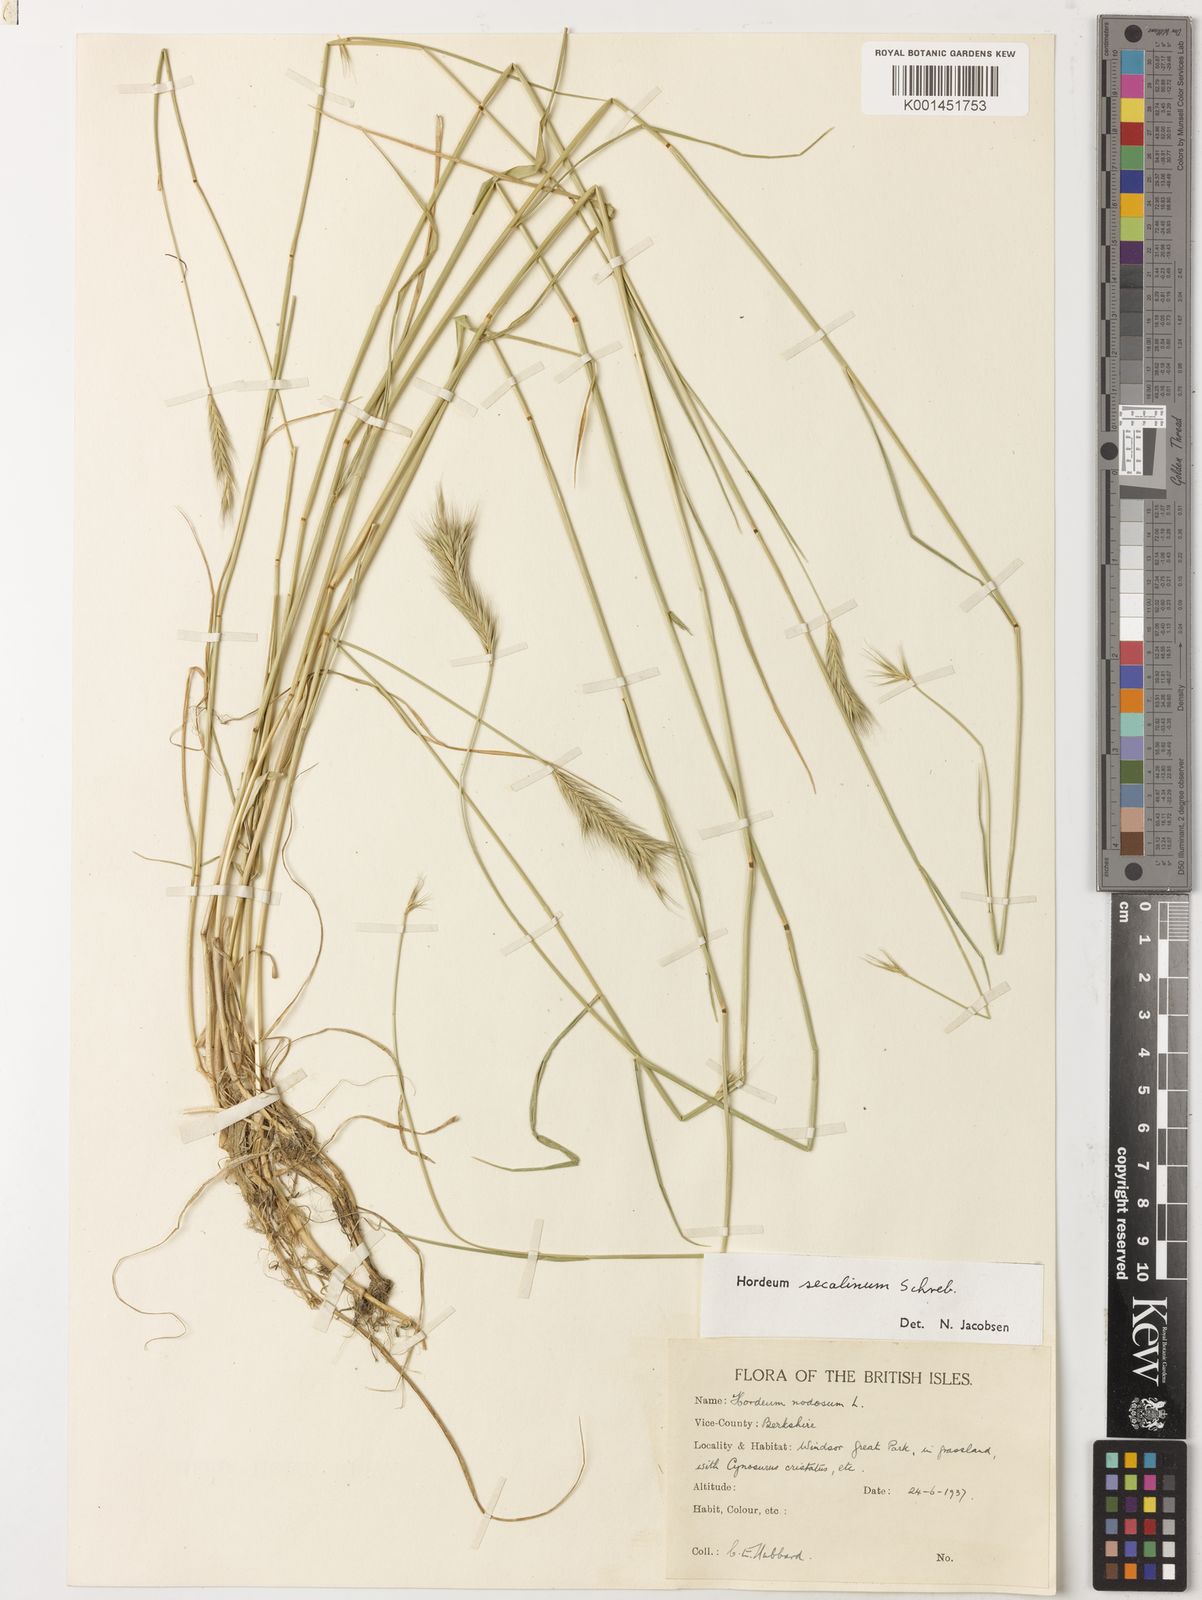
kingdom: Plantae
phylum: Tracheophyta
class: Liliopsida
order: Poales
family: Poaceae
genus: Hordeum
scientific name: Hordeum secalinum
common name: Meadow barley
